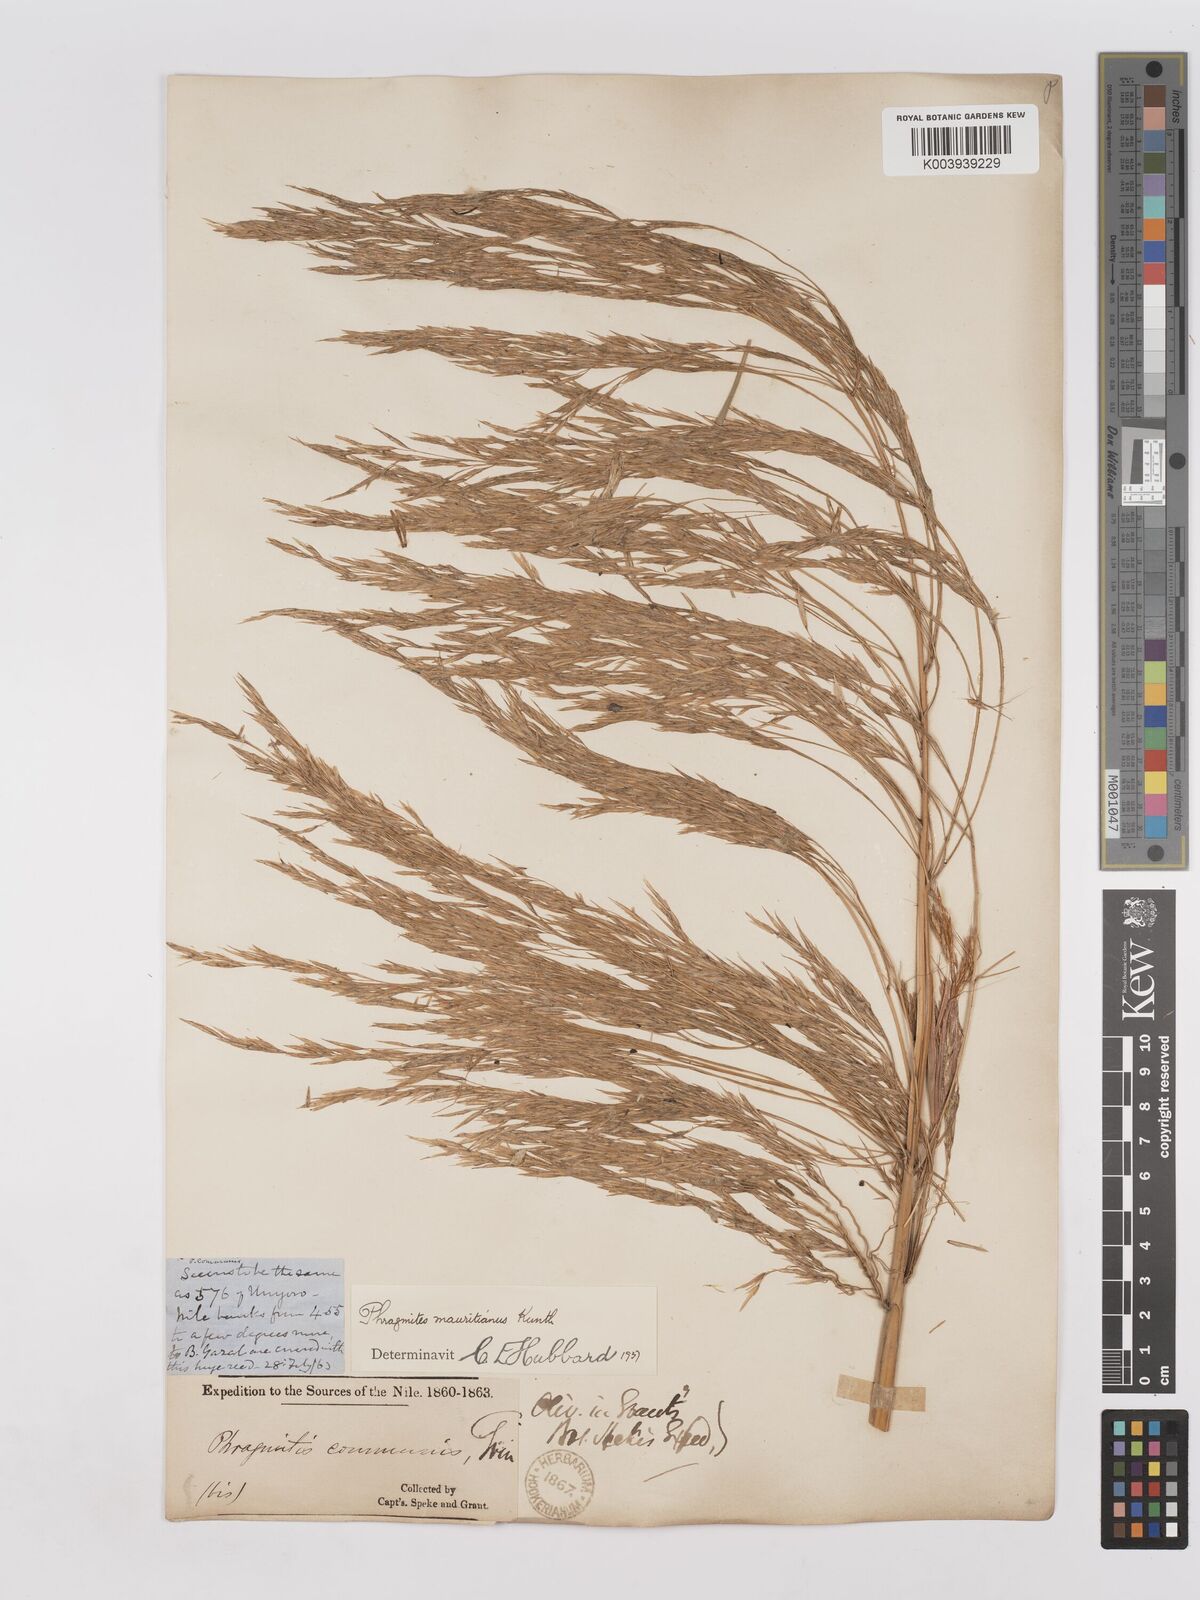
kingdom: Plantae
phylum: Tracheophyta
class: Liliopsida
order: Poales
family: Poaceae
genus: Phragmites
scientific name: Phragmites mauritianus
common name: Reed grass
